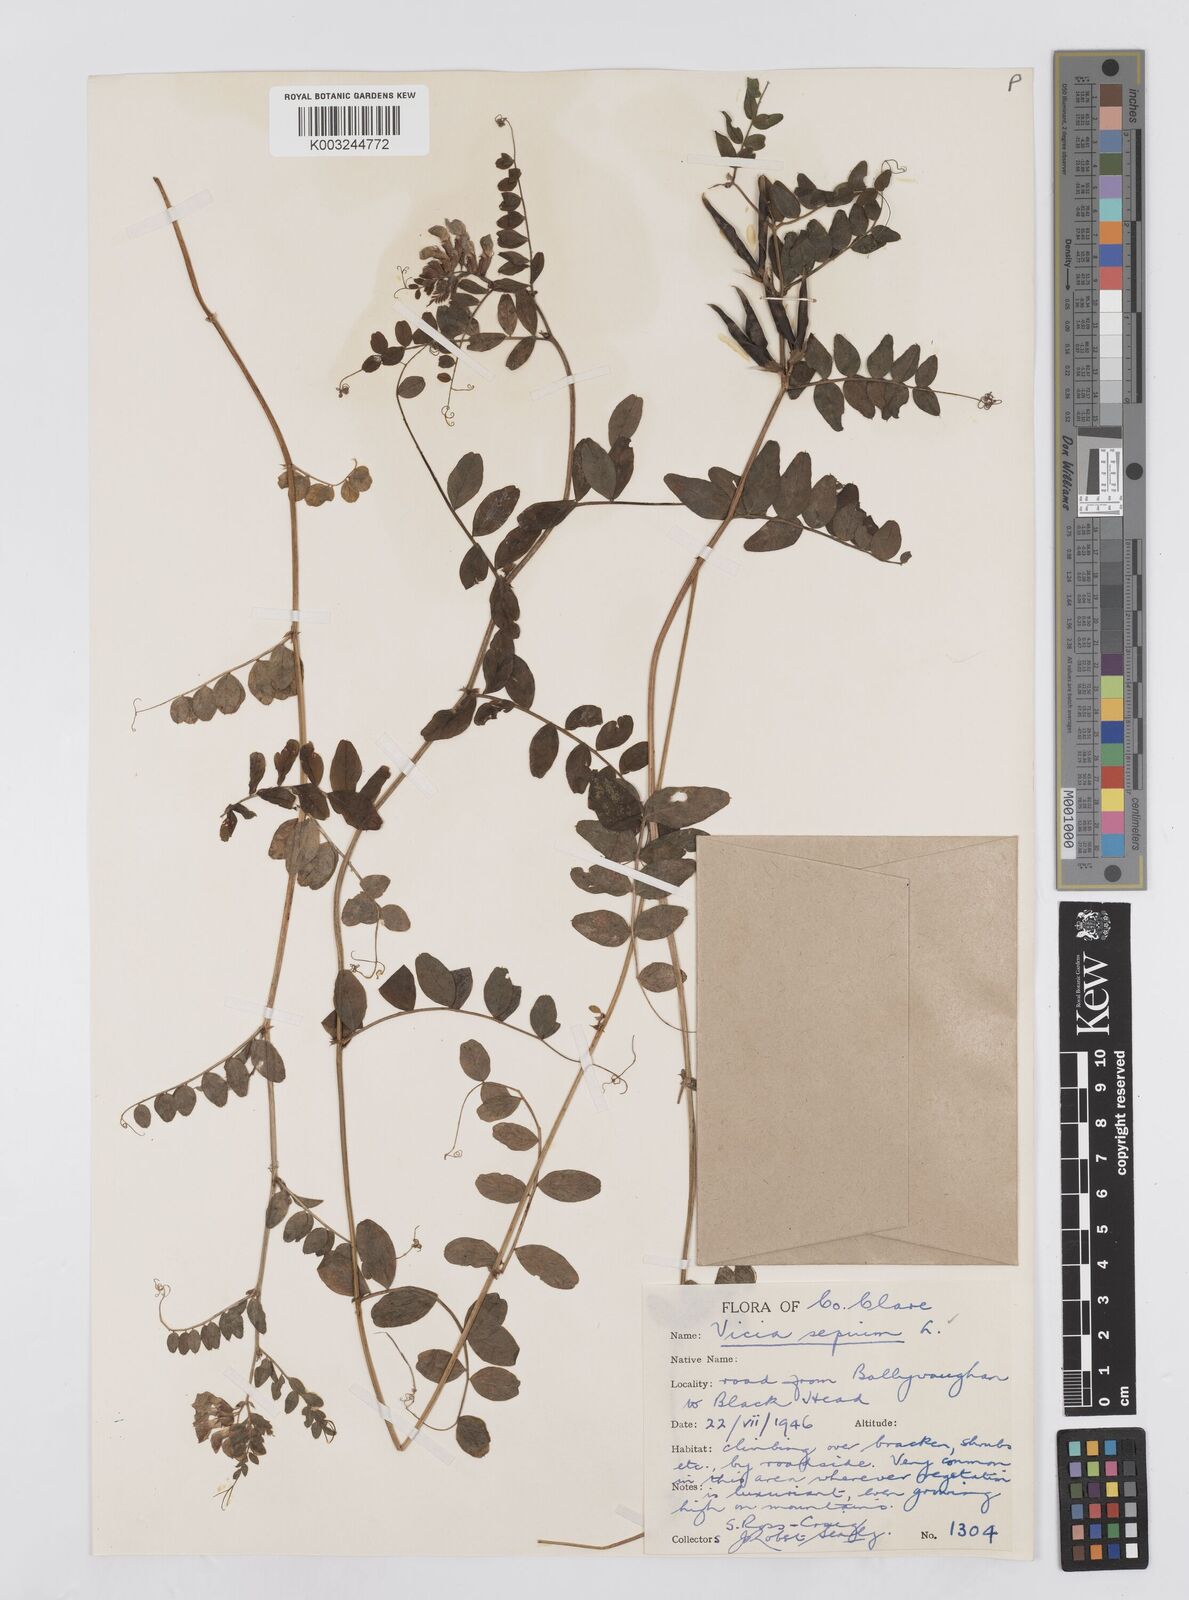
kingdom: Plantae
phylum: Tracheophyta
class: Magnoliopsida
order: Fabales
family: Fabaceae
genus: Vicia
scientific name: Vicia sepium
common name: Bush vetch
